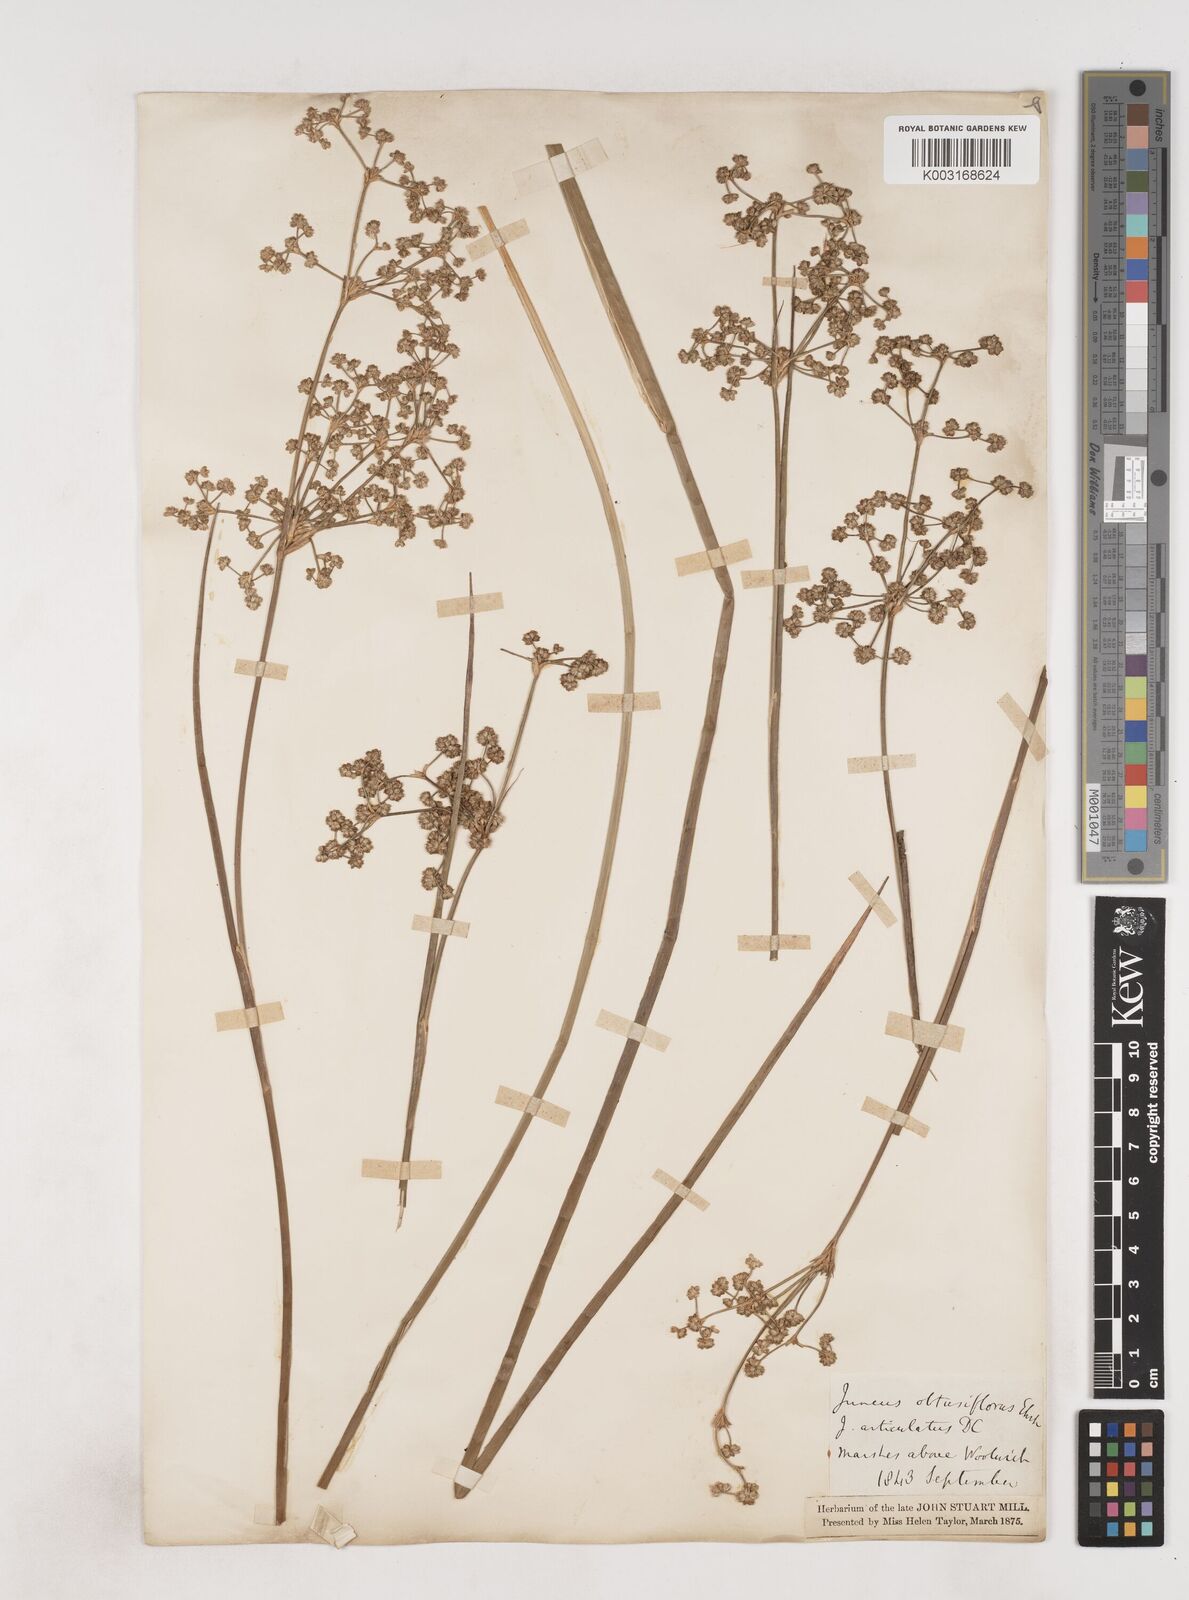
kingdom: Plantae
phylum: Tracheophyta
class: Liliopsida
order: Poales
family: Juncaceae
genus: Juncus
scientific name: Juncus subnodulosus
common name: Blunt-flowered rush
